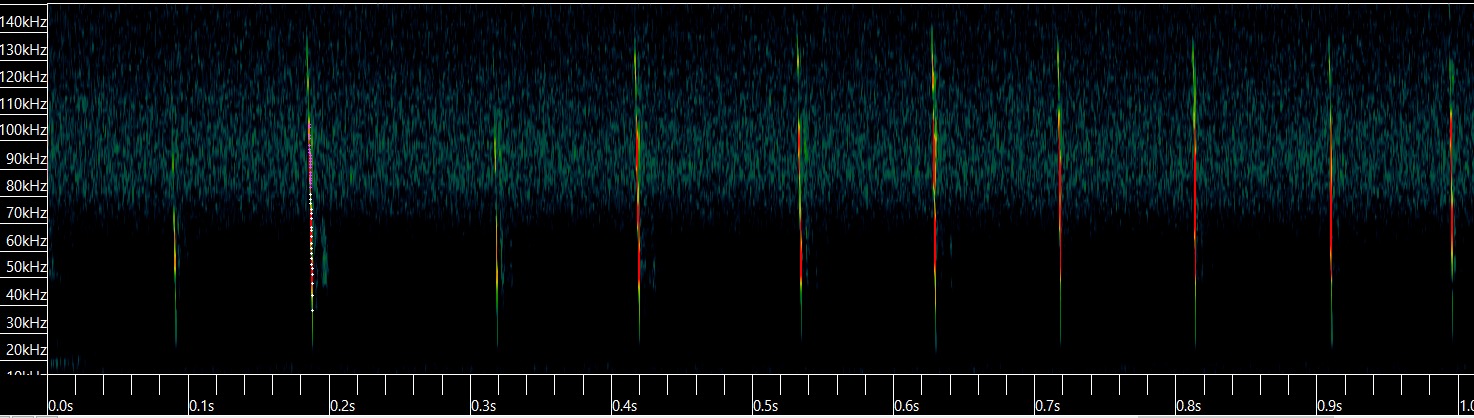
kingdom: Animalia
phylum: Chordata
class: Mammalia
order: Chiroptera
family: Vespertilionidae
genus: Myotis
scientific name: Myotis nattereri
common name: Frynseflagermus
